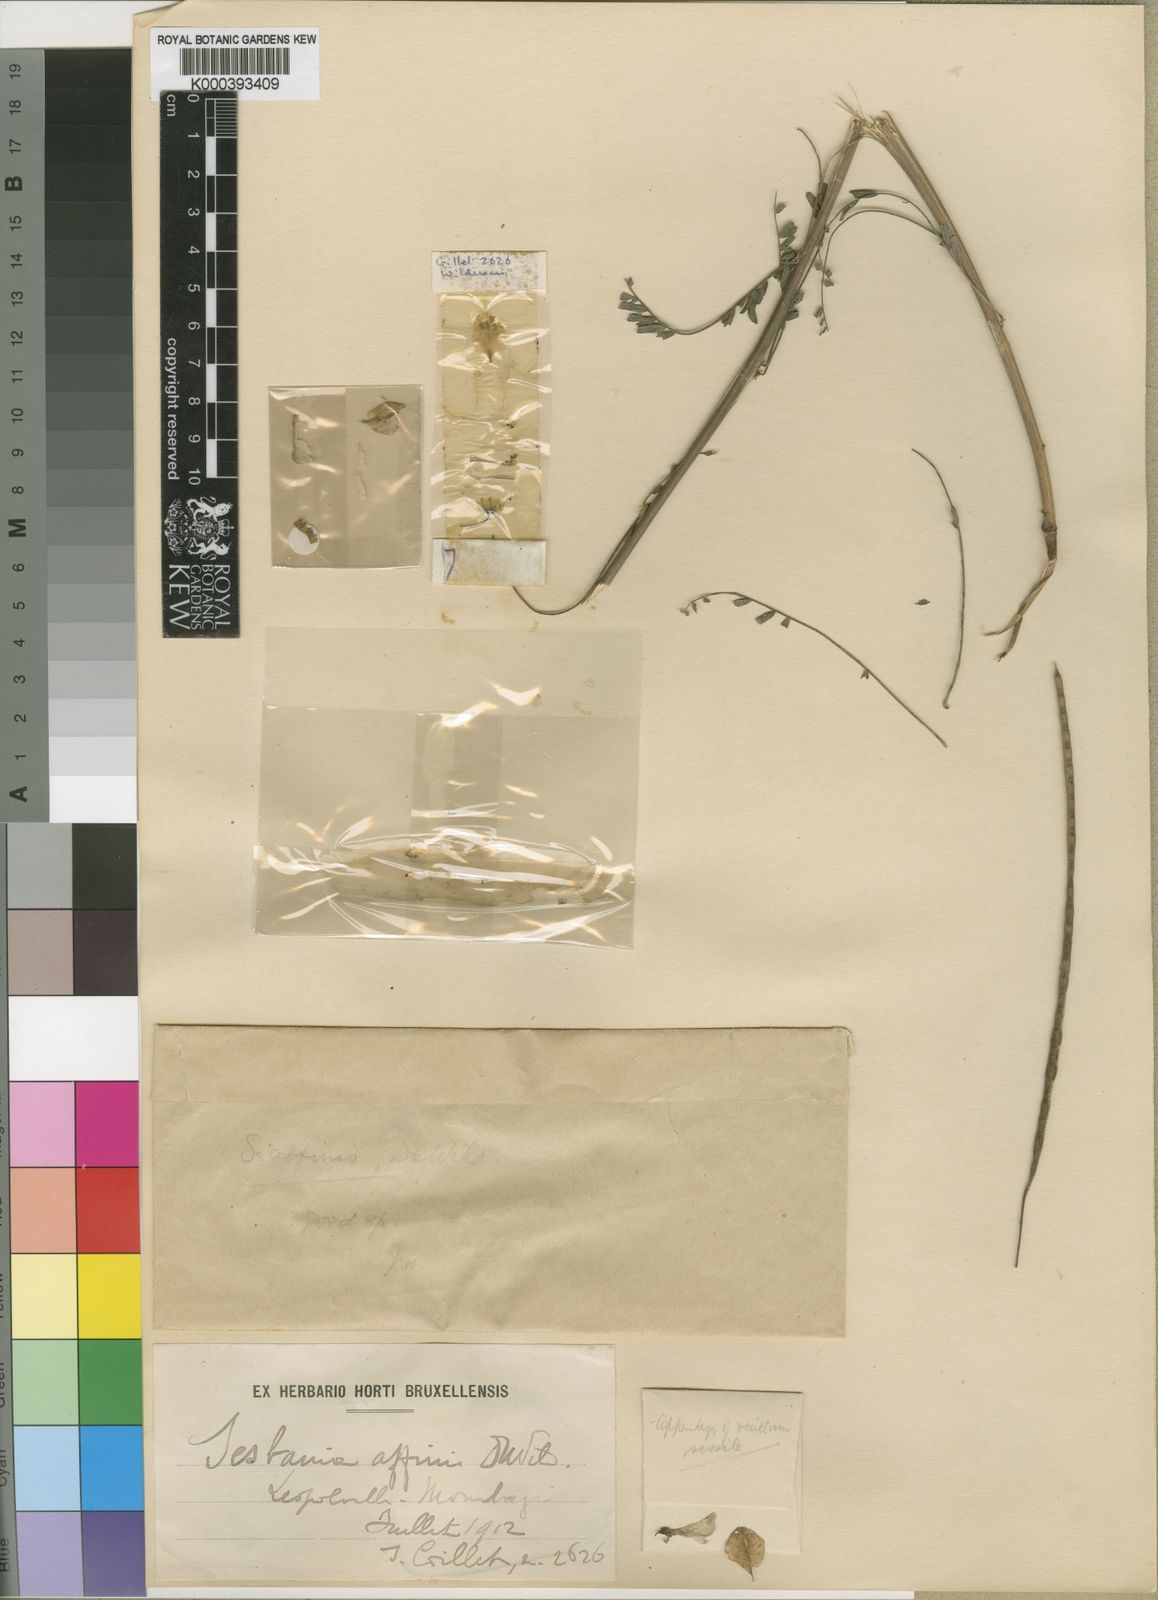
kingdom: Plantae
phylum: Tracheophyta
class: Magnoliopsida
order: Fabales
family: Fabaceae
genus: Sesbania
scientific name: Sesbania wildemannii
